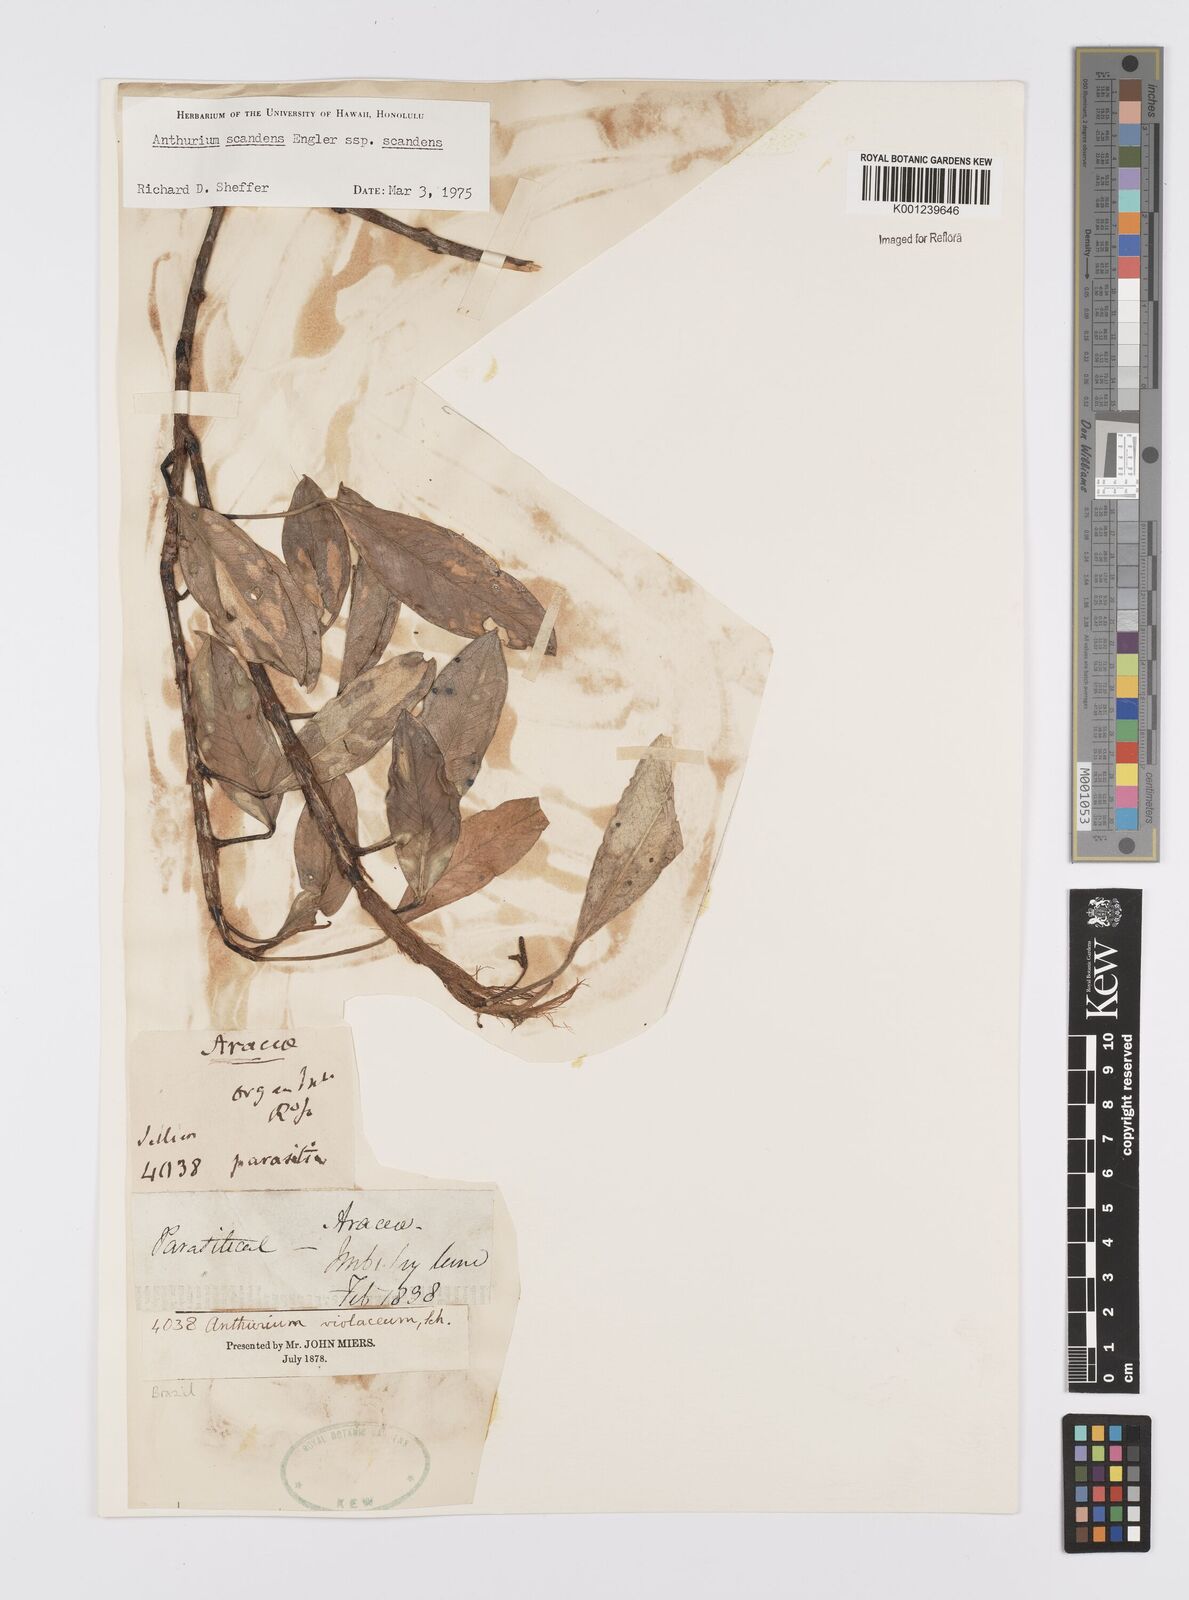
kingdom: Plantae
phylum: Tracheophyta
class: Liliopsida
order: Alismatales
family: Araceae
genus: Anthurium
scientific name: Anthurium scandens
